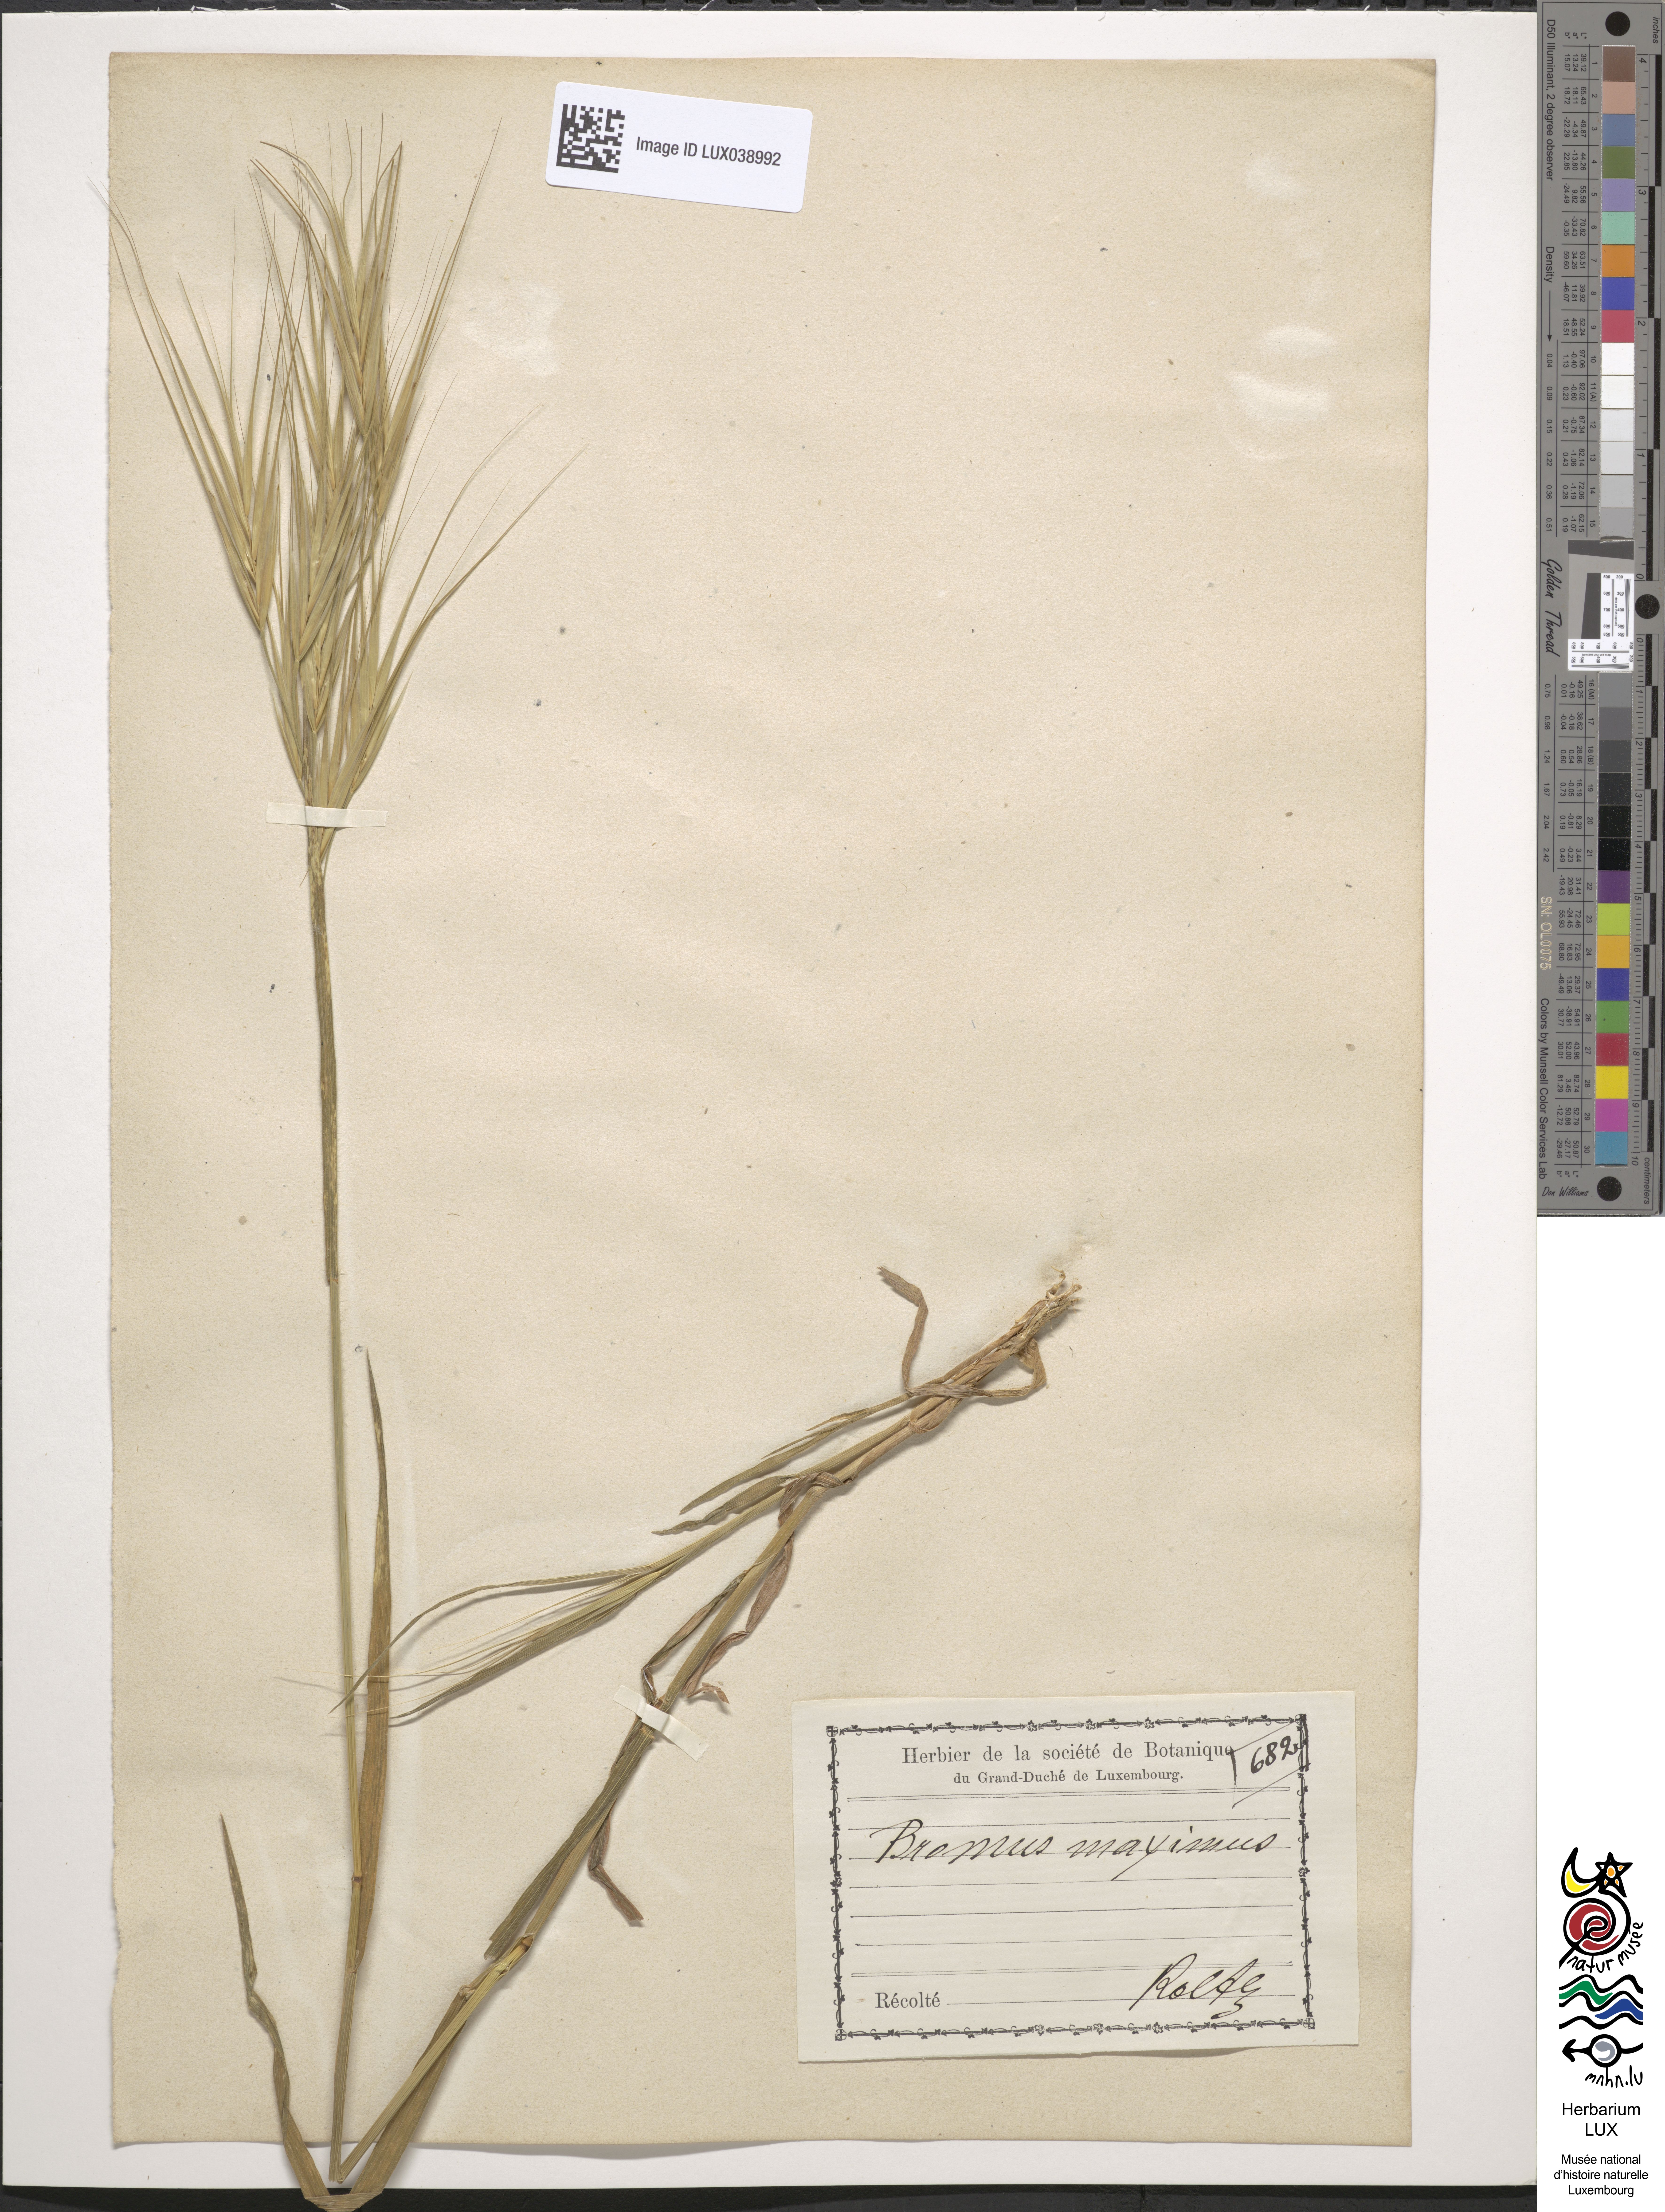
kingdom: Plantae
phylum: Tracheophyta
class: Liliopsida
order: Poales
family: Poaceae
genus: Bromus
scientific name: Bromus rigidus
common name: Ripgut brome
